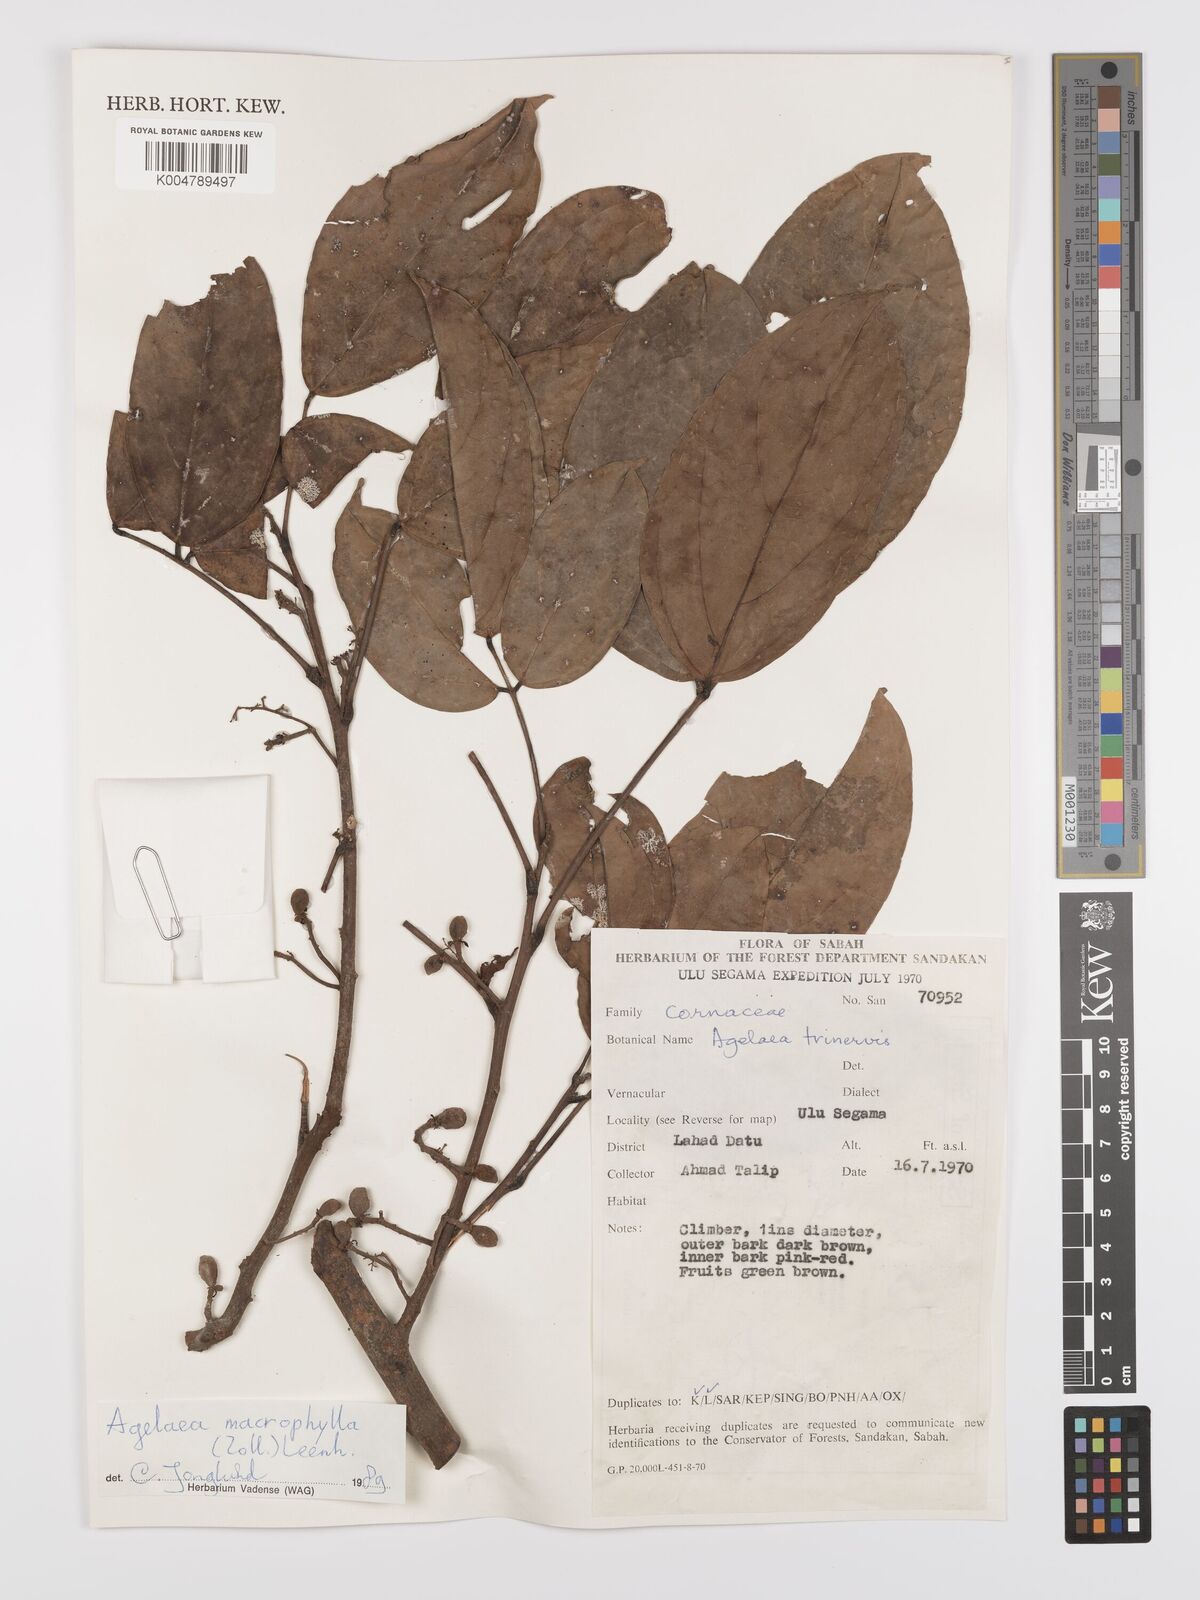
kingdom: Plantae
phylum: Tracheophyta
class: Magnoliopsida
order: Oxalidales
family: Connaraceae
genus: Agelaea
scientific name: Agelaea macrophylla
